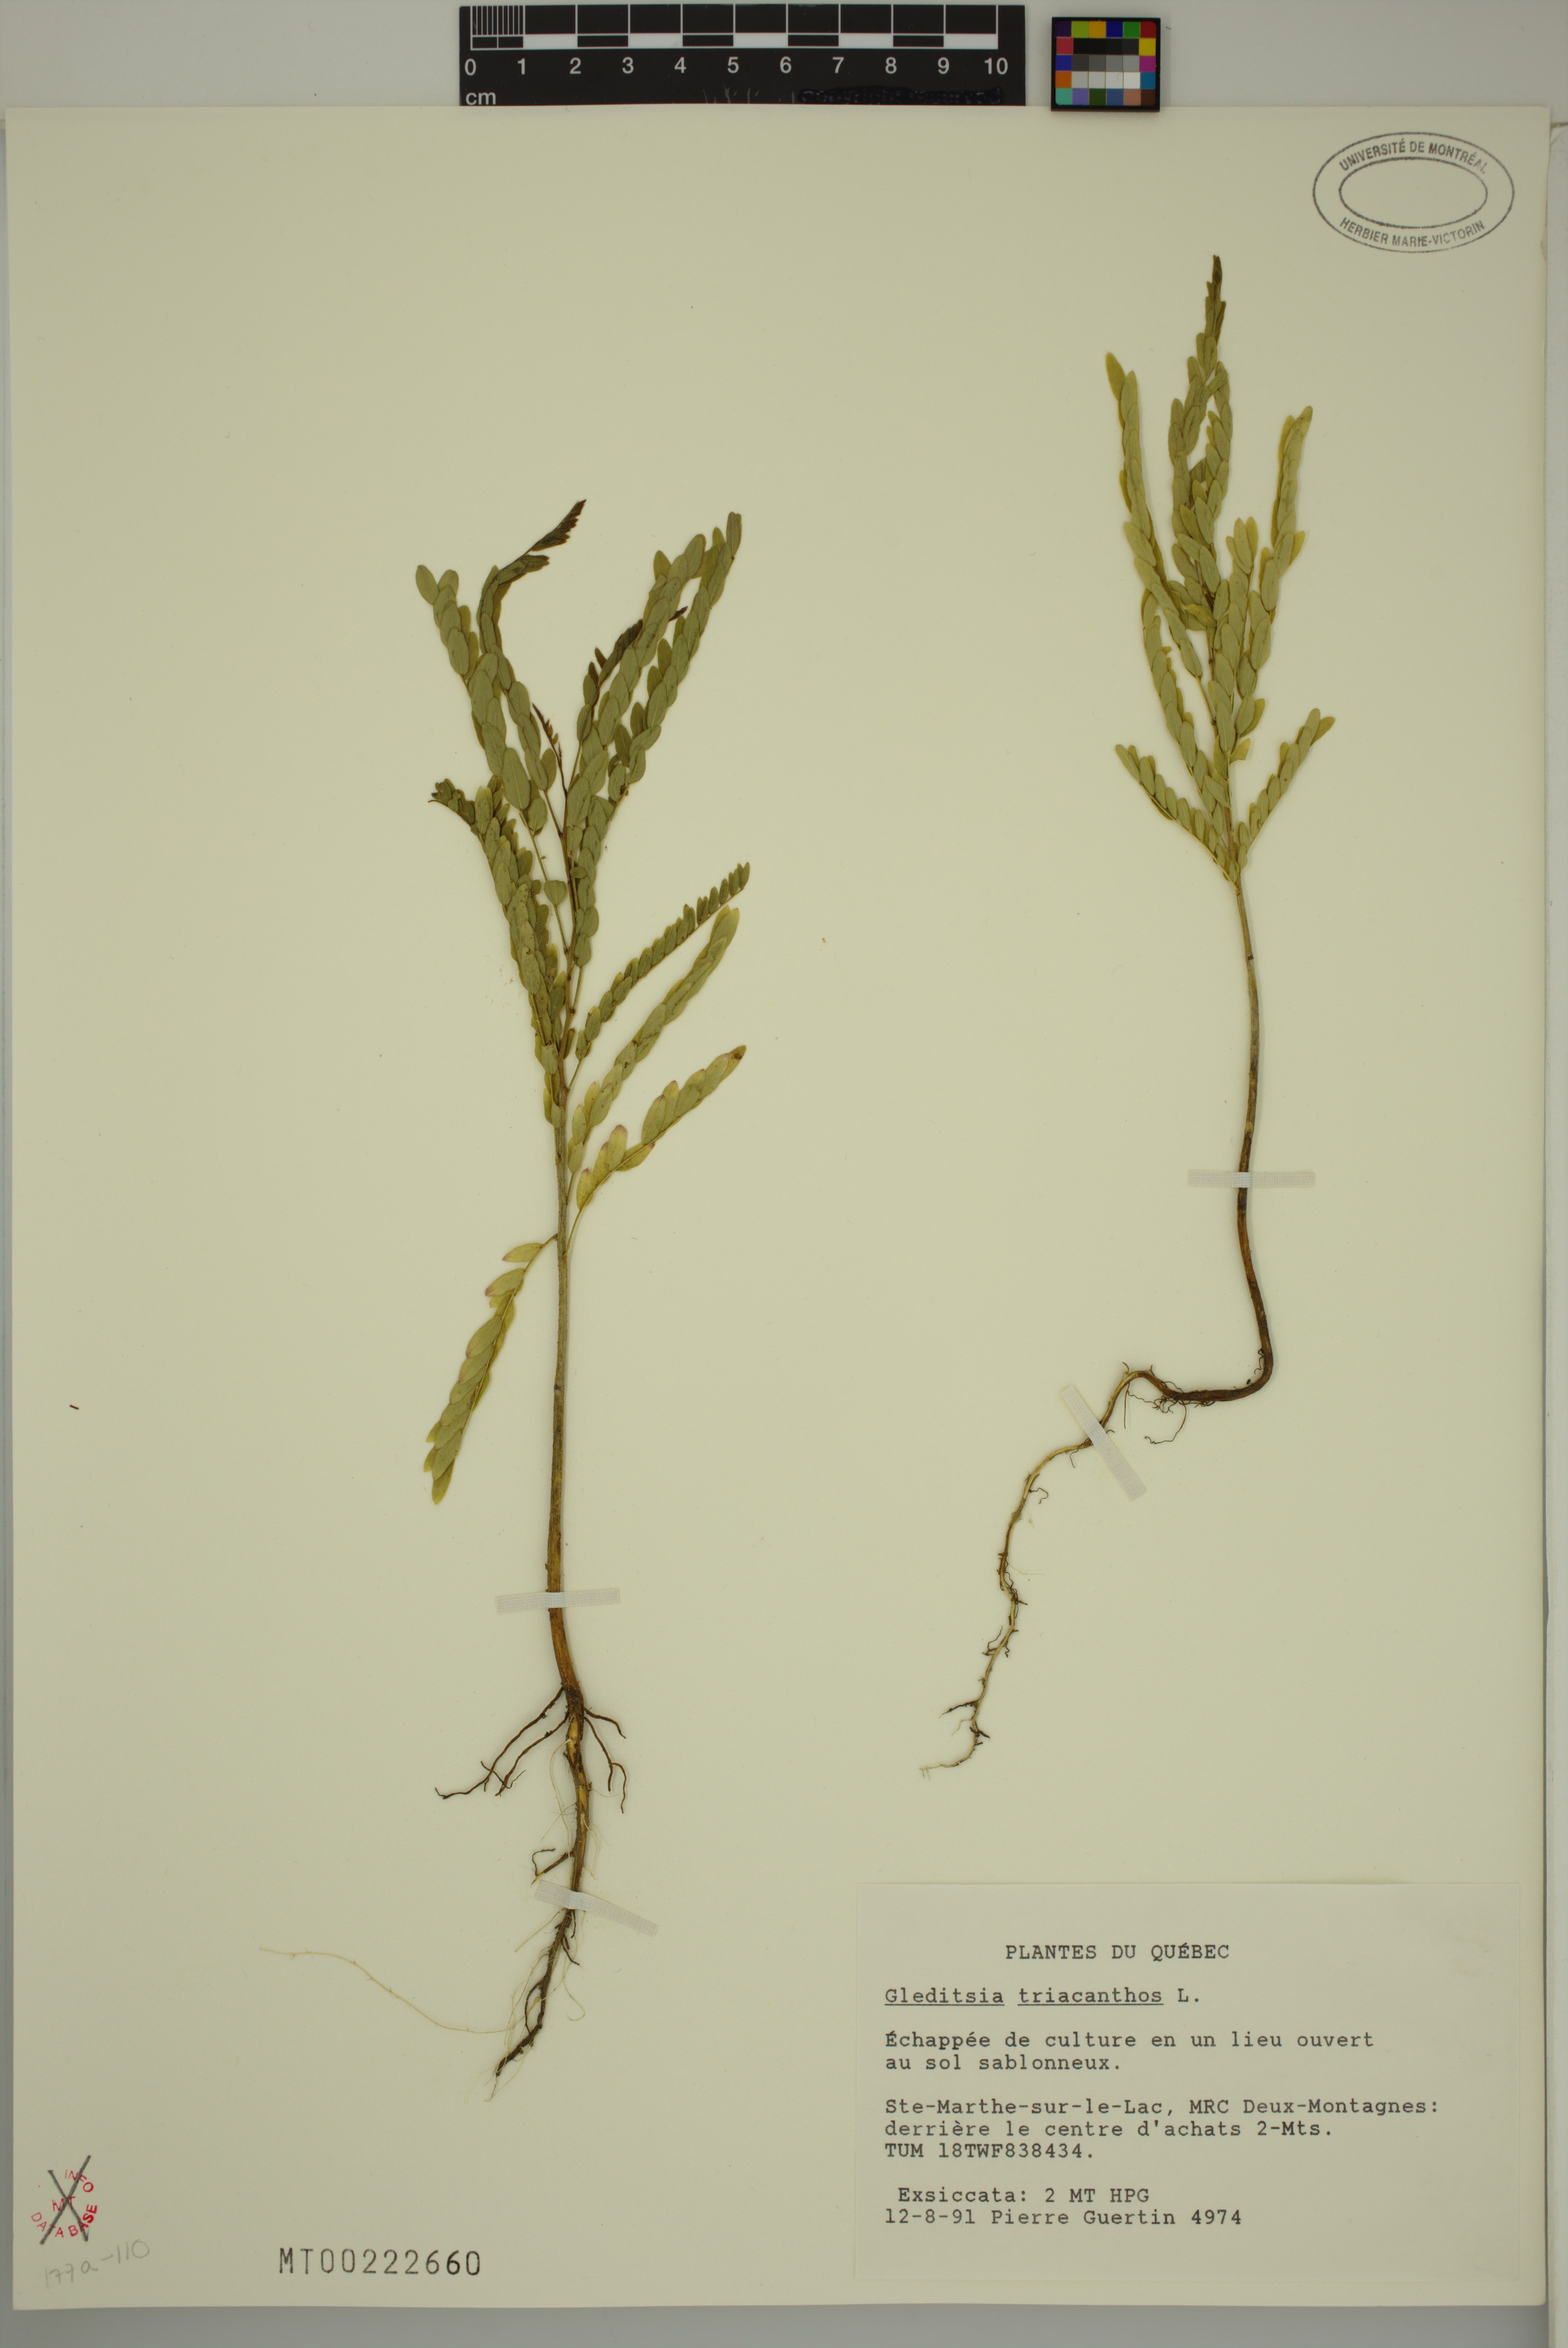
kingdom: Plantae
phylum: Tracheophyta
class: Magnoliopsida
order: Fabales
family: Fabaceae
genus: Gleditsia
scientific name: Gleditsia triacanthos
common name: Common honeylocust
